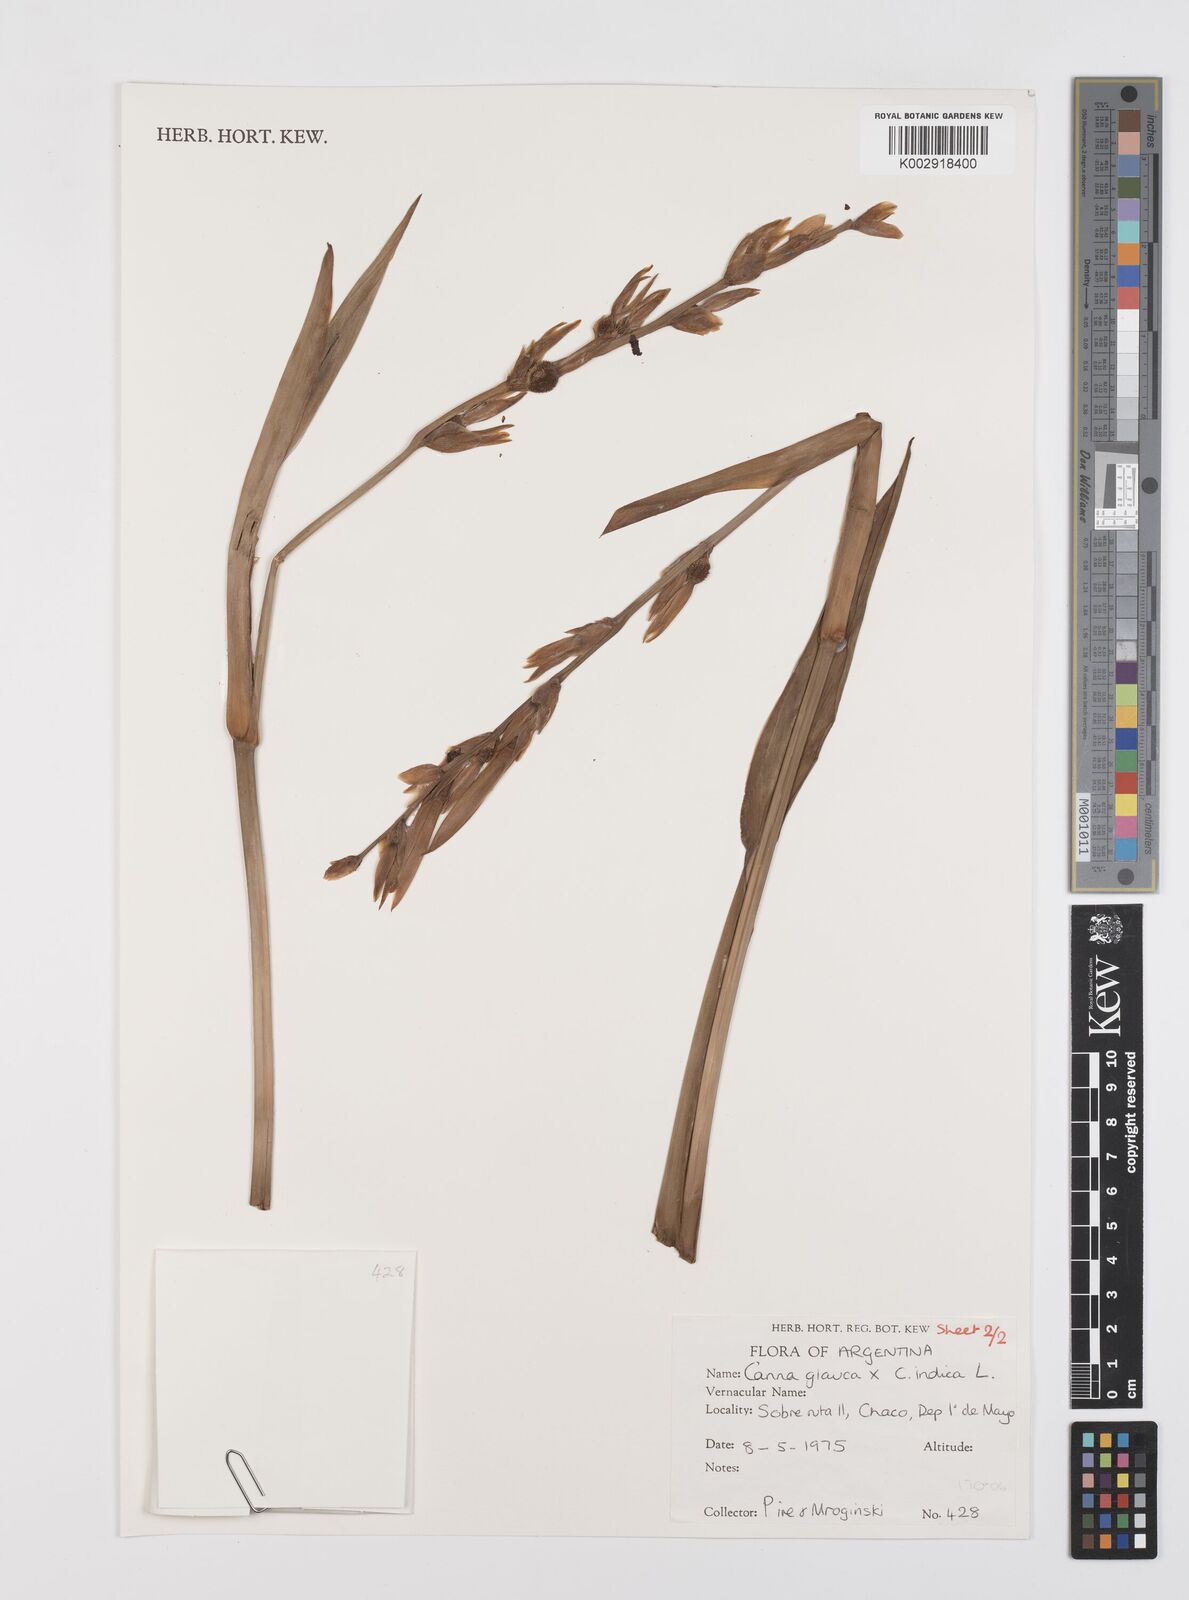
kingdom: Plantae
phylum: Tracheophyta
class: Liliopsida
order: Zingiberales
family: Cannaceae
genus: Canna
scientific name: Canna glauca
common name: Louisiana canna
